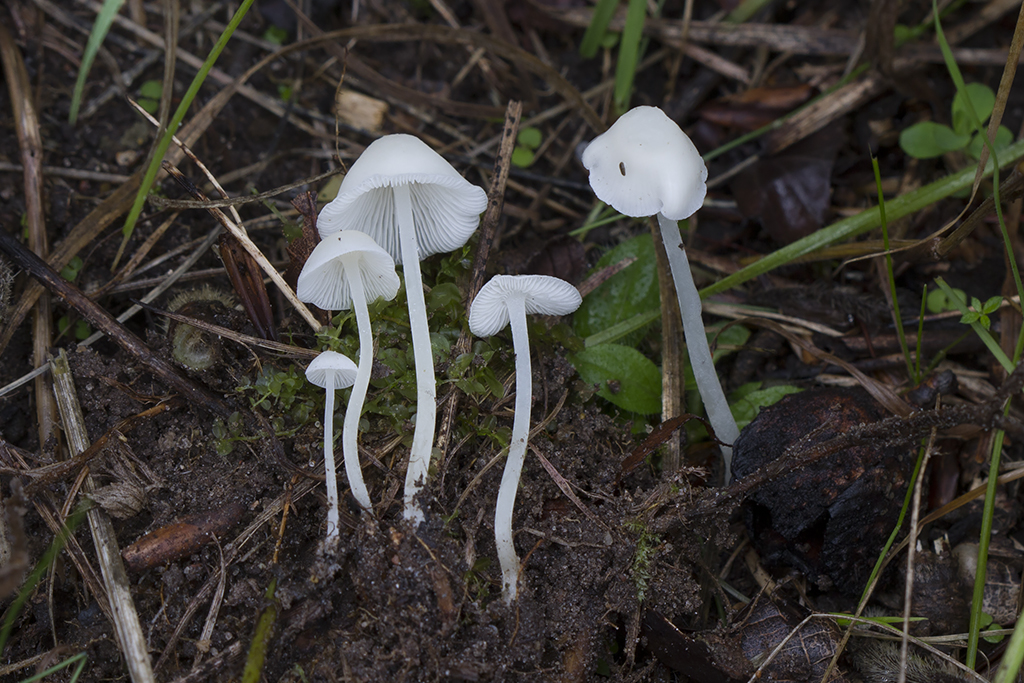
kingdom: Fungi
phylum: Basidiomycota
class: Agaricomycetes
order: Agaricales
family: Mycenaceae
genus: Hemimycena
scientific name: Hemimycena cucullata
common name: tætbladet huesvamp
